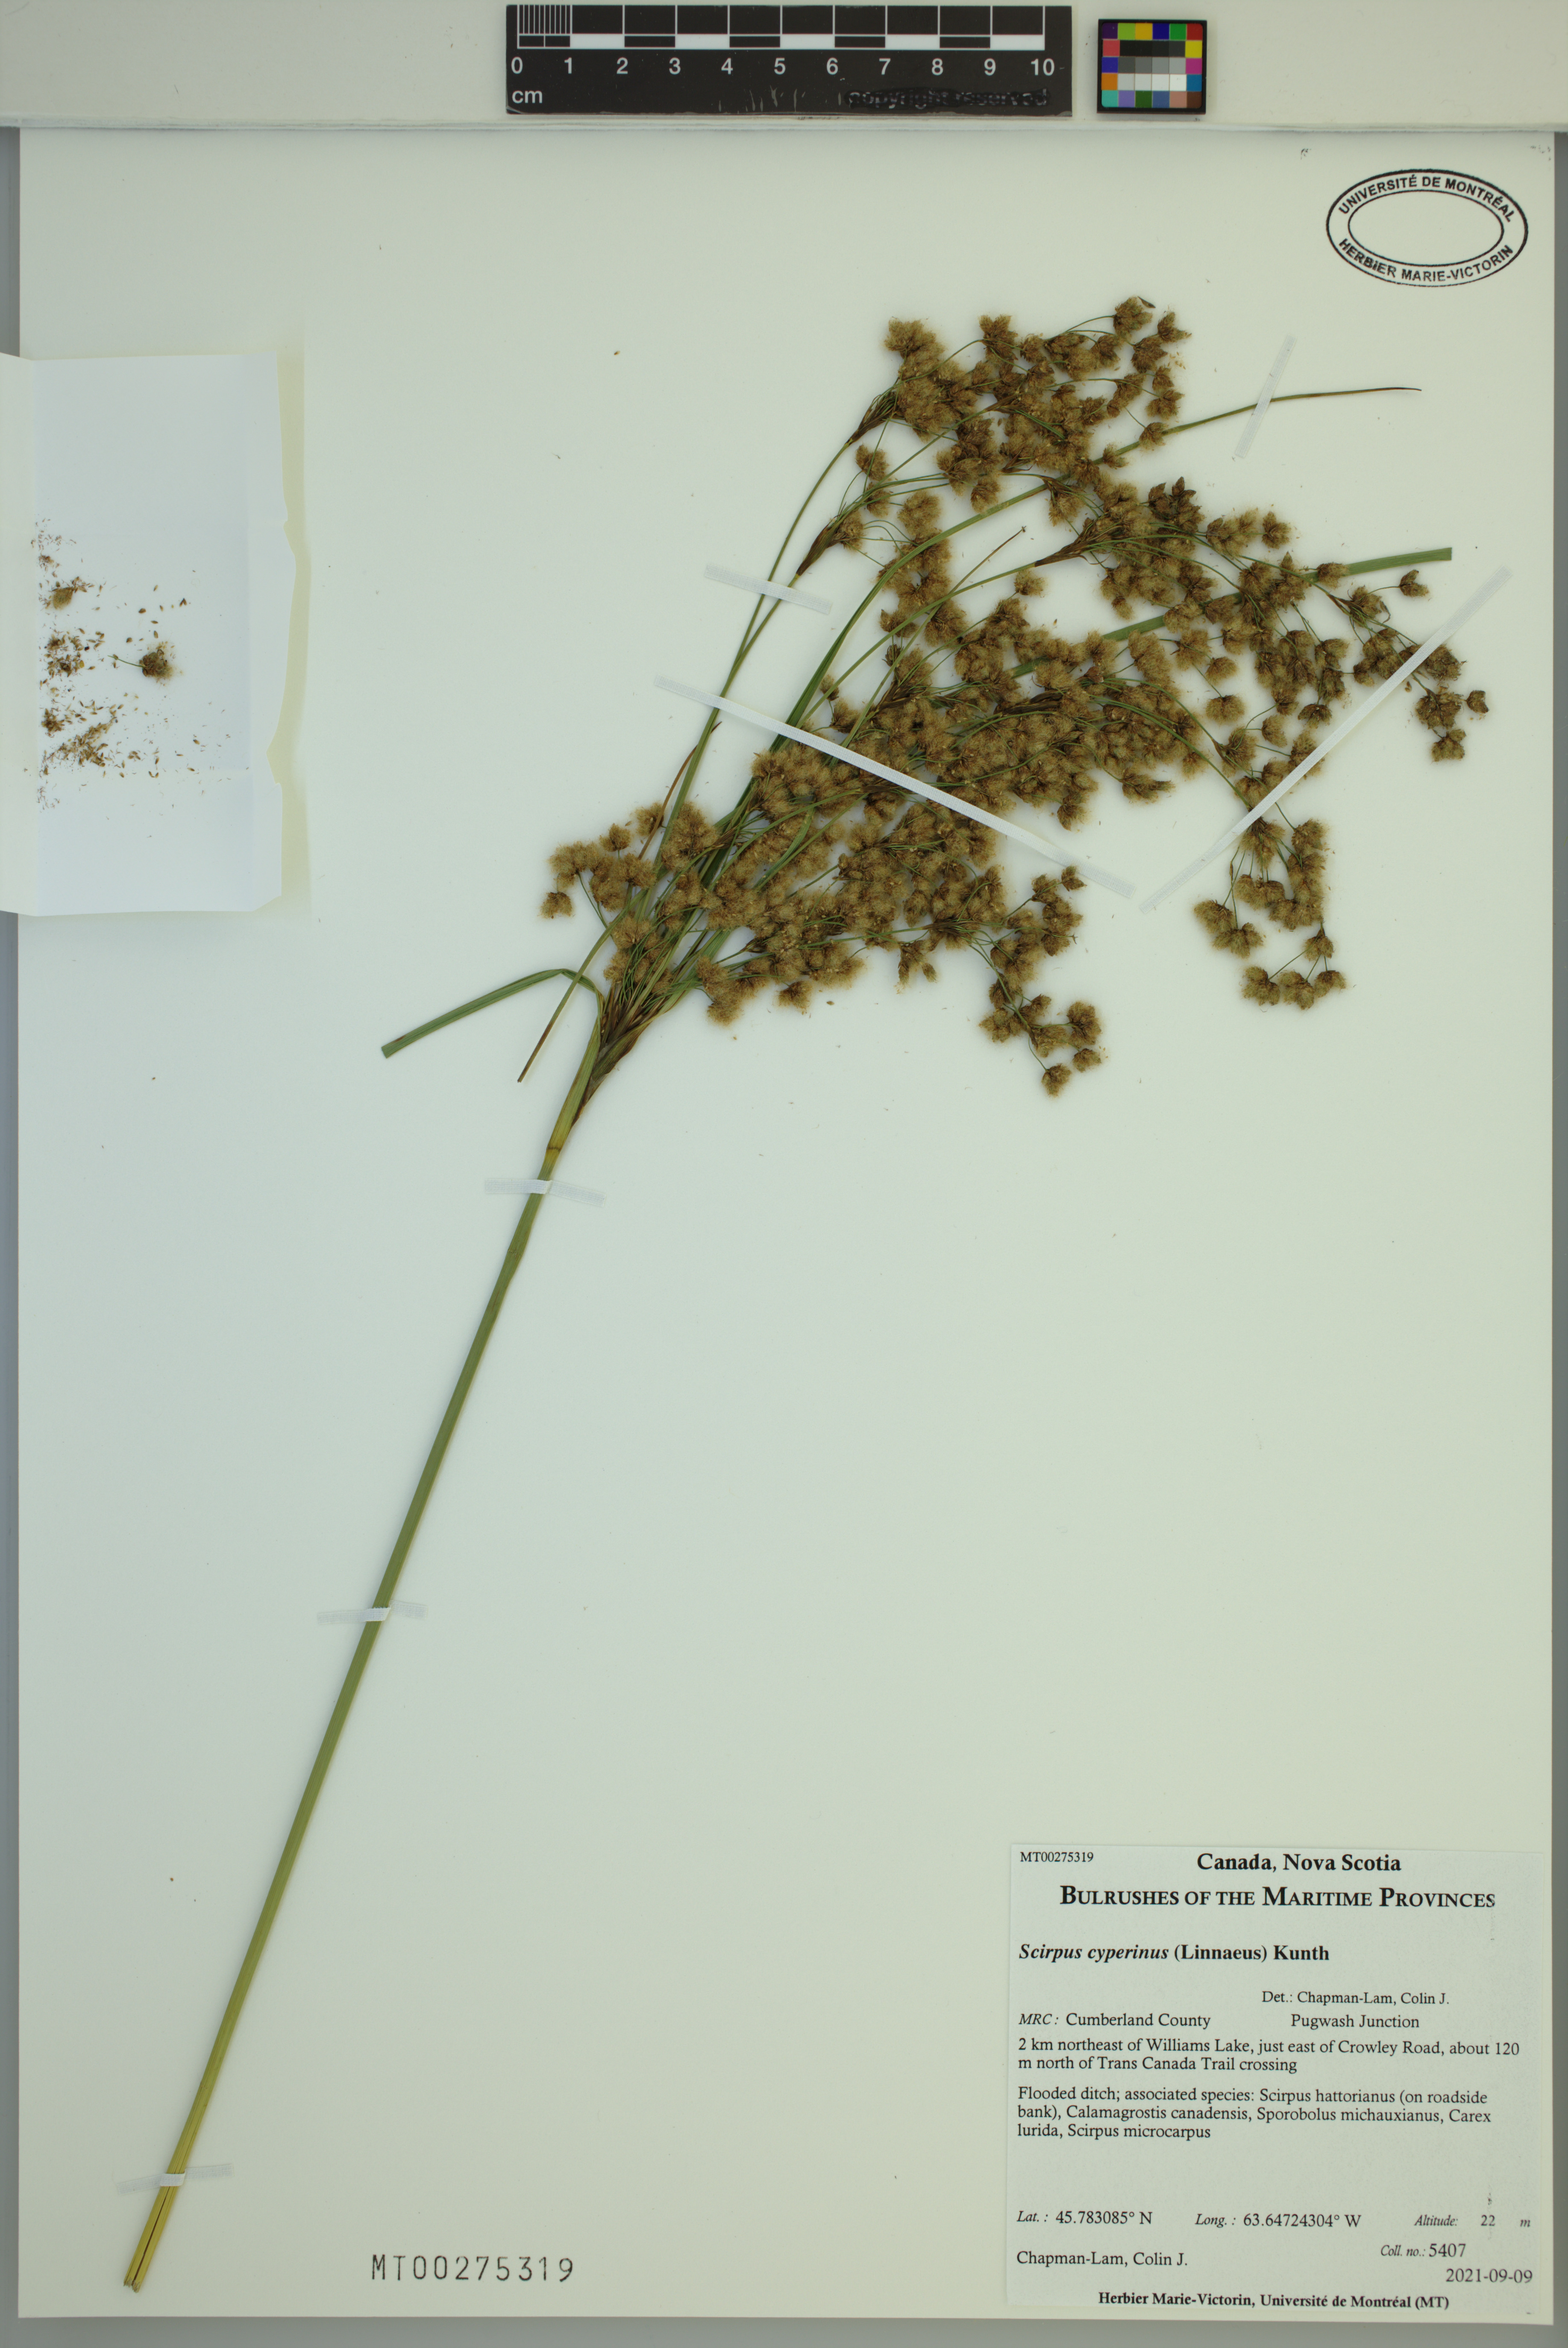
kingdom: Plantae
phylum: Tracheophyta
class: Liliopsida
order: Poales
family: Cyperaceae
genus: Scirpus
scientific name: Scirpus cyperinus
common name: Black-sheathed bulrush
